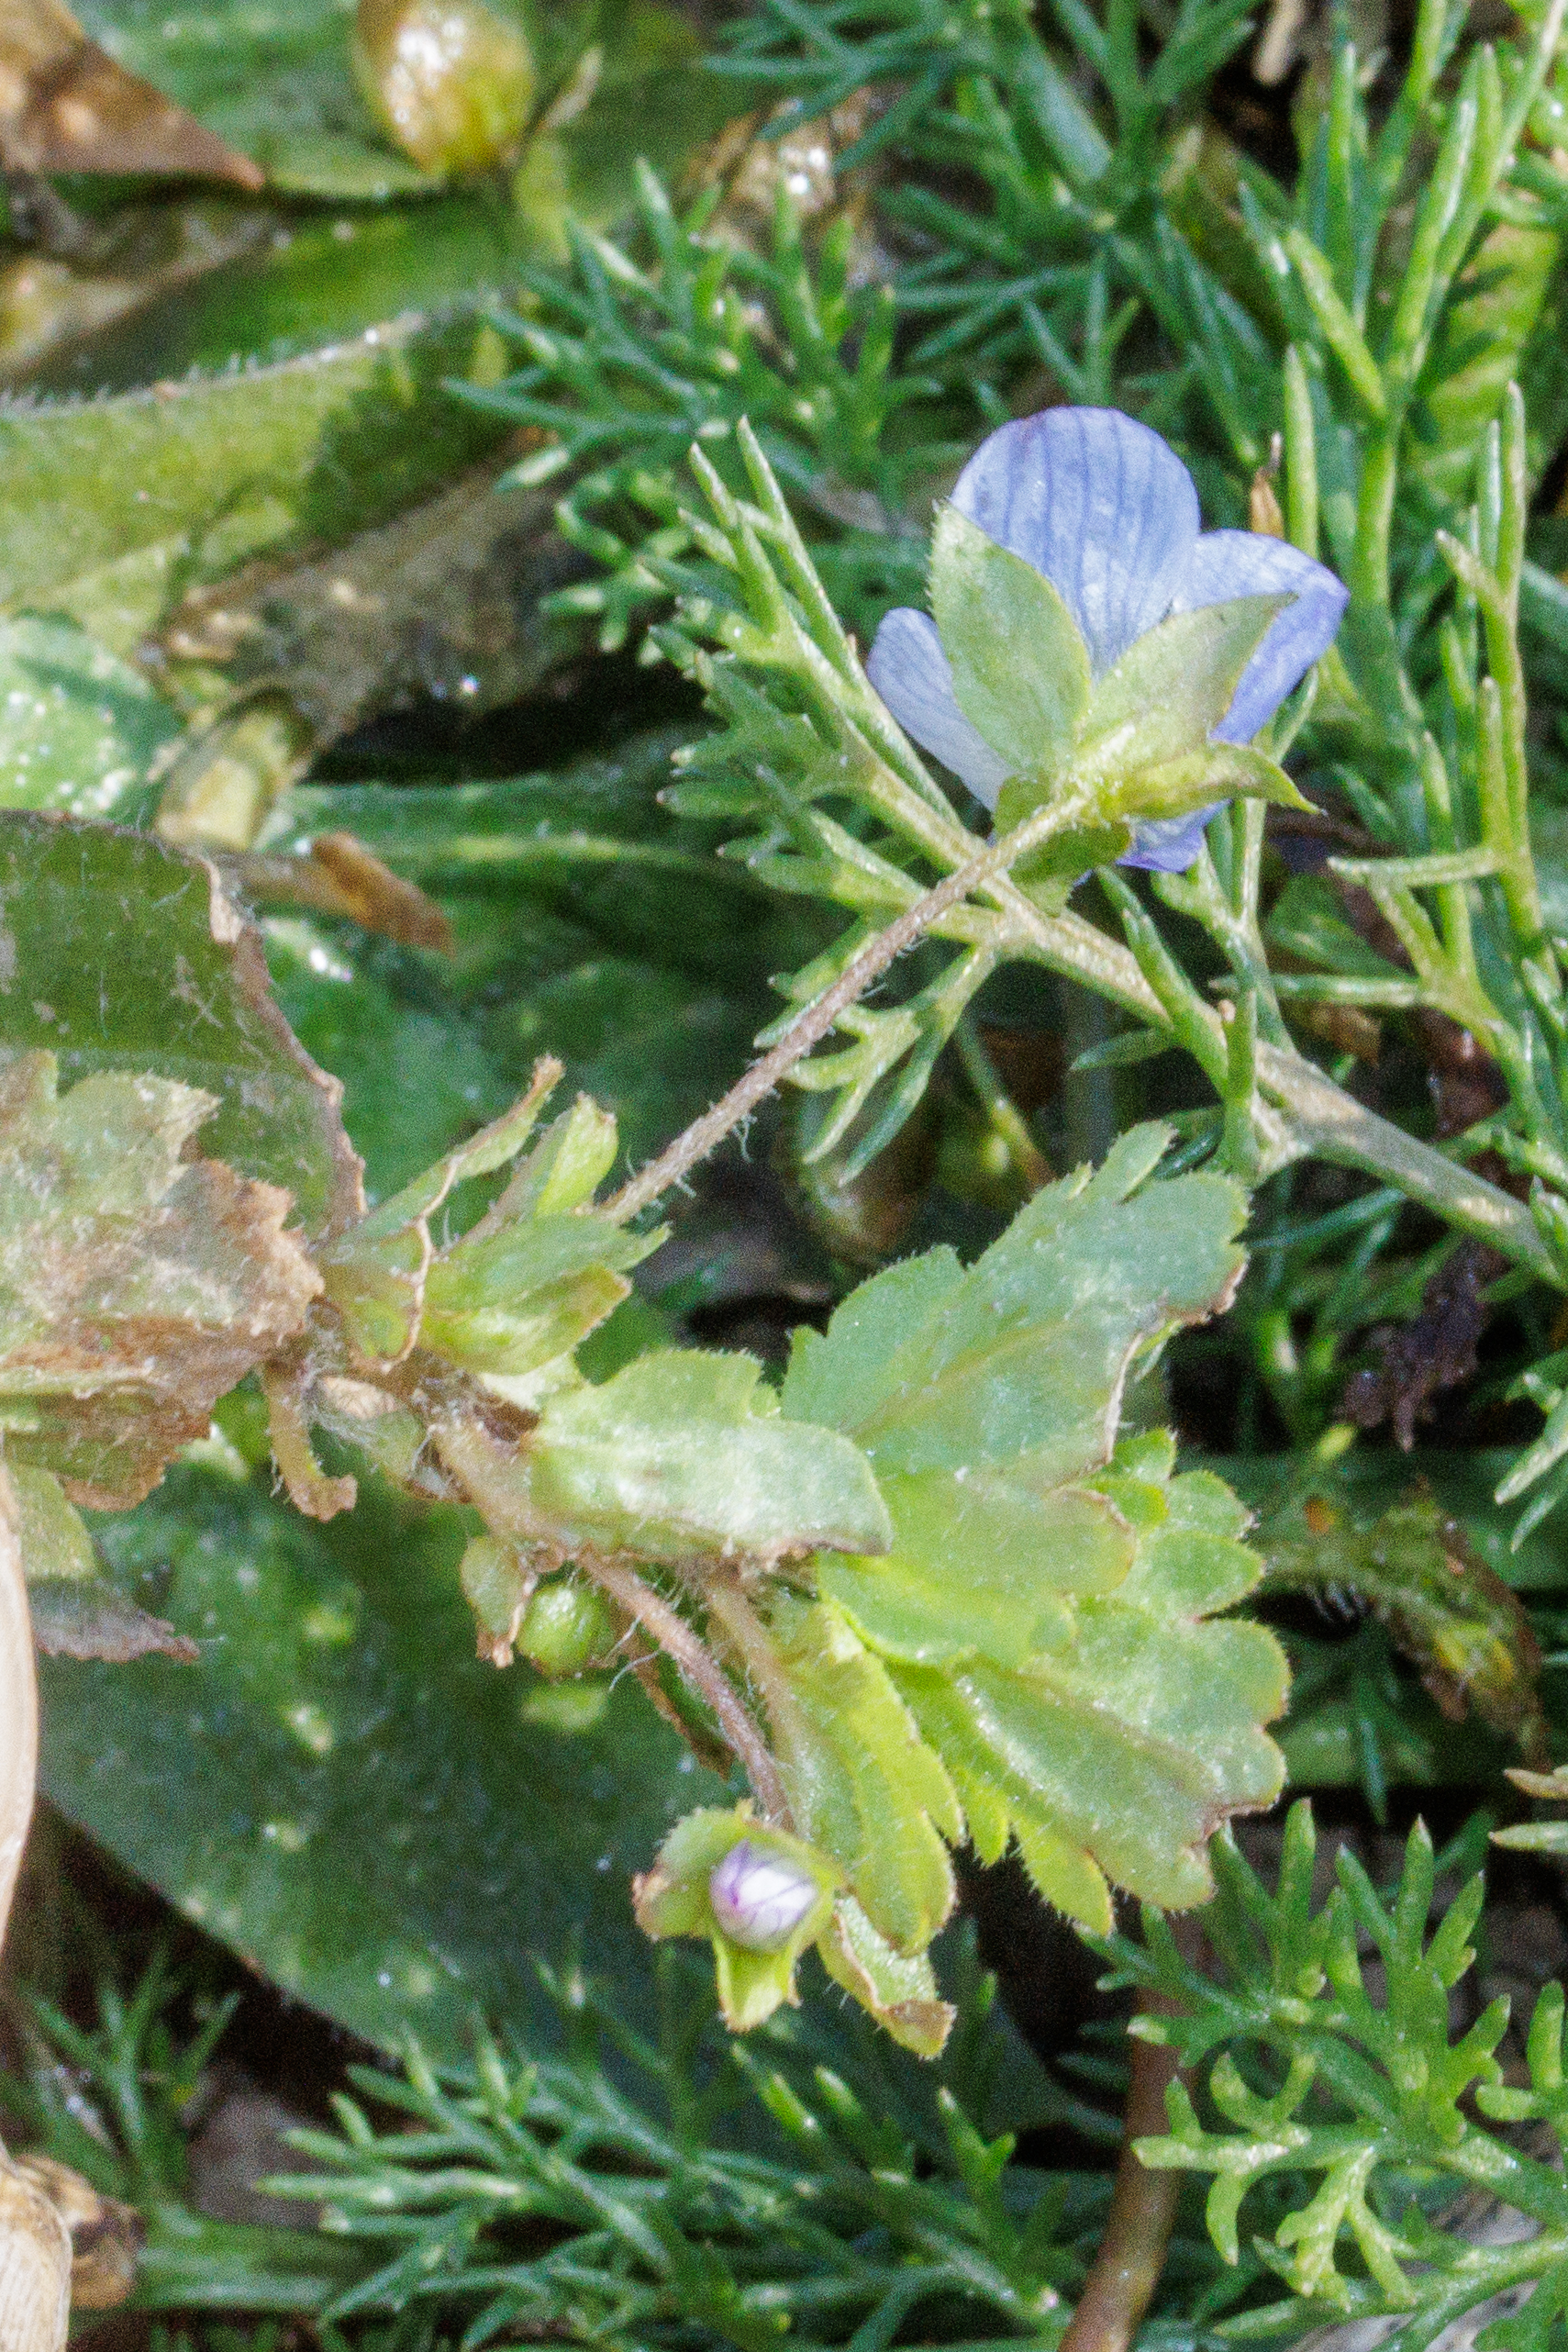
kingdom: Plantae
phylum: Tracheophyta
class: Magnoliopsida
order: Lamiales
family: Plantaginaceae
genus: Veronica
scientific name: Veronica persica
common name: Storkronet ærenpris
